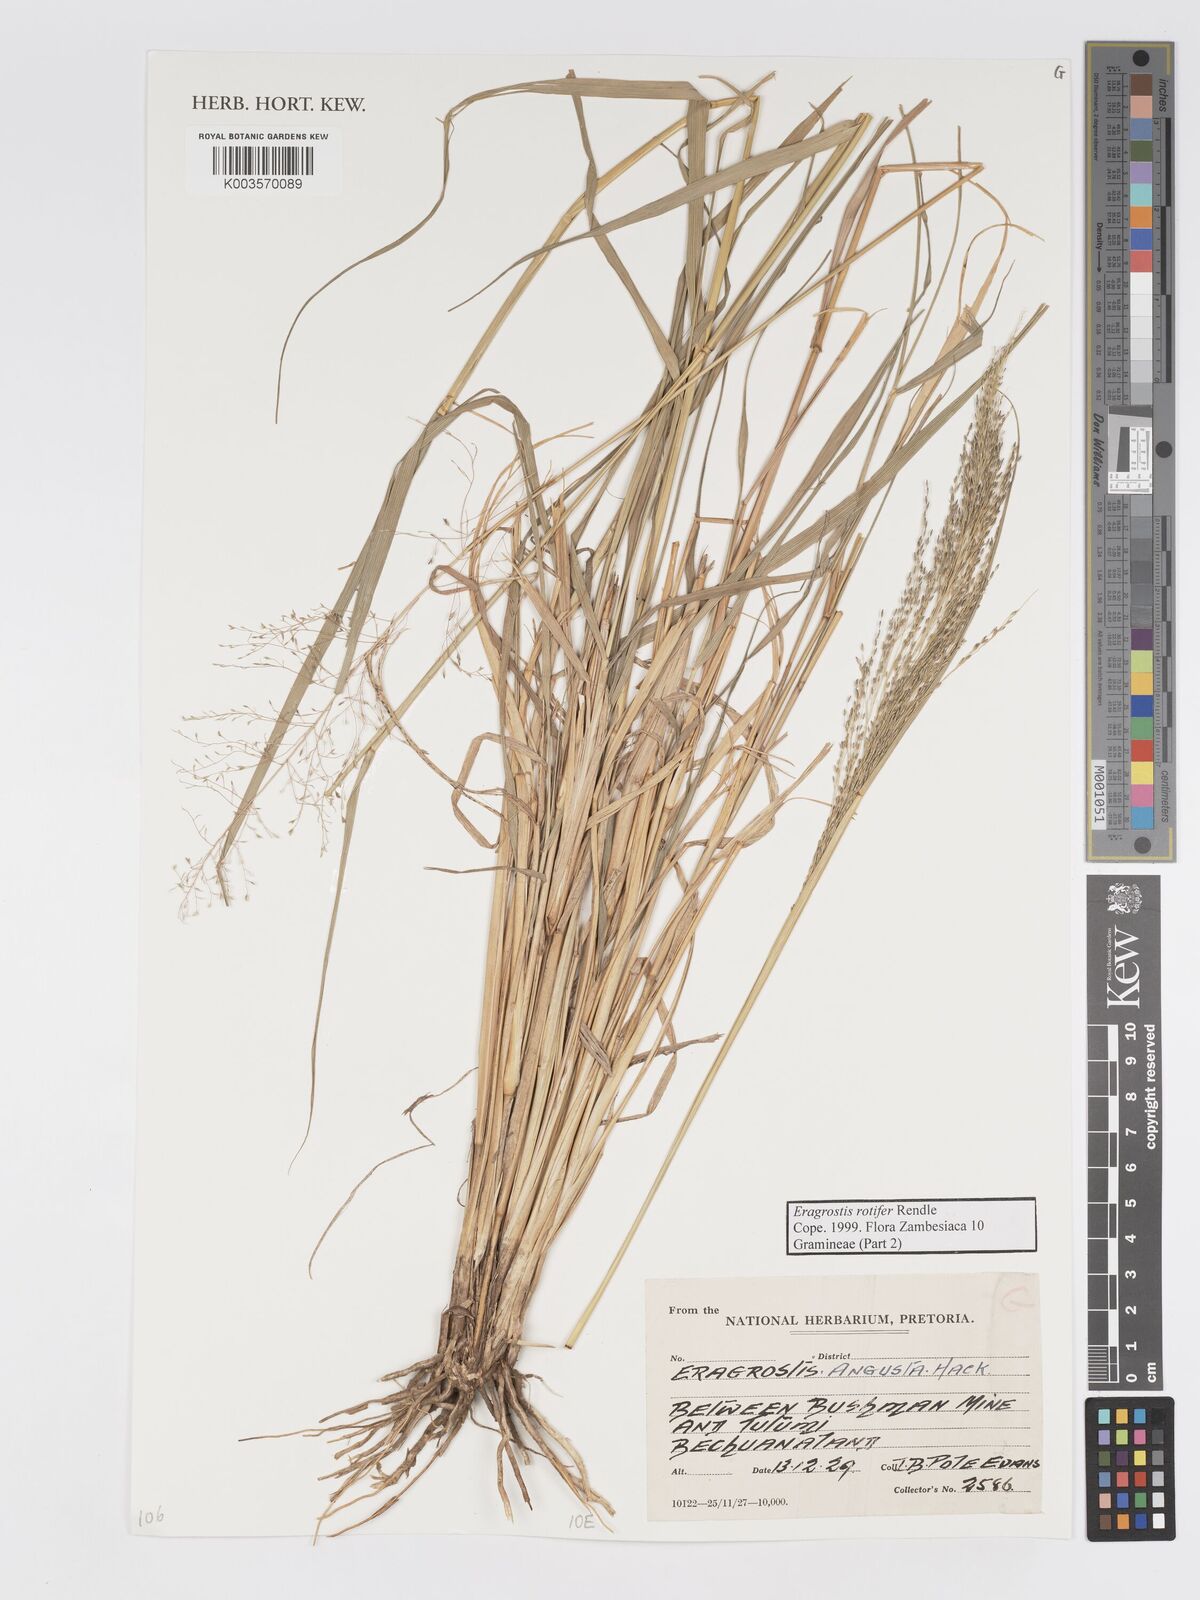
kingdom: Plantae
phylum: Tracheophyta
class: Liliopsida
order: Poales
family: Poaceae
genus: Eragrostis
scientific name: Eragrostis rotifer
